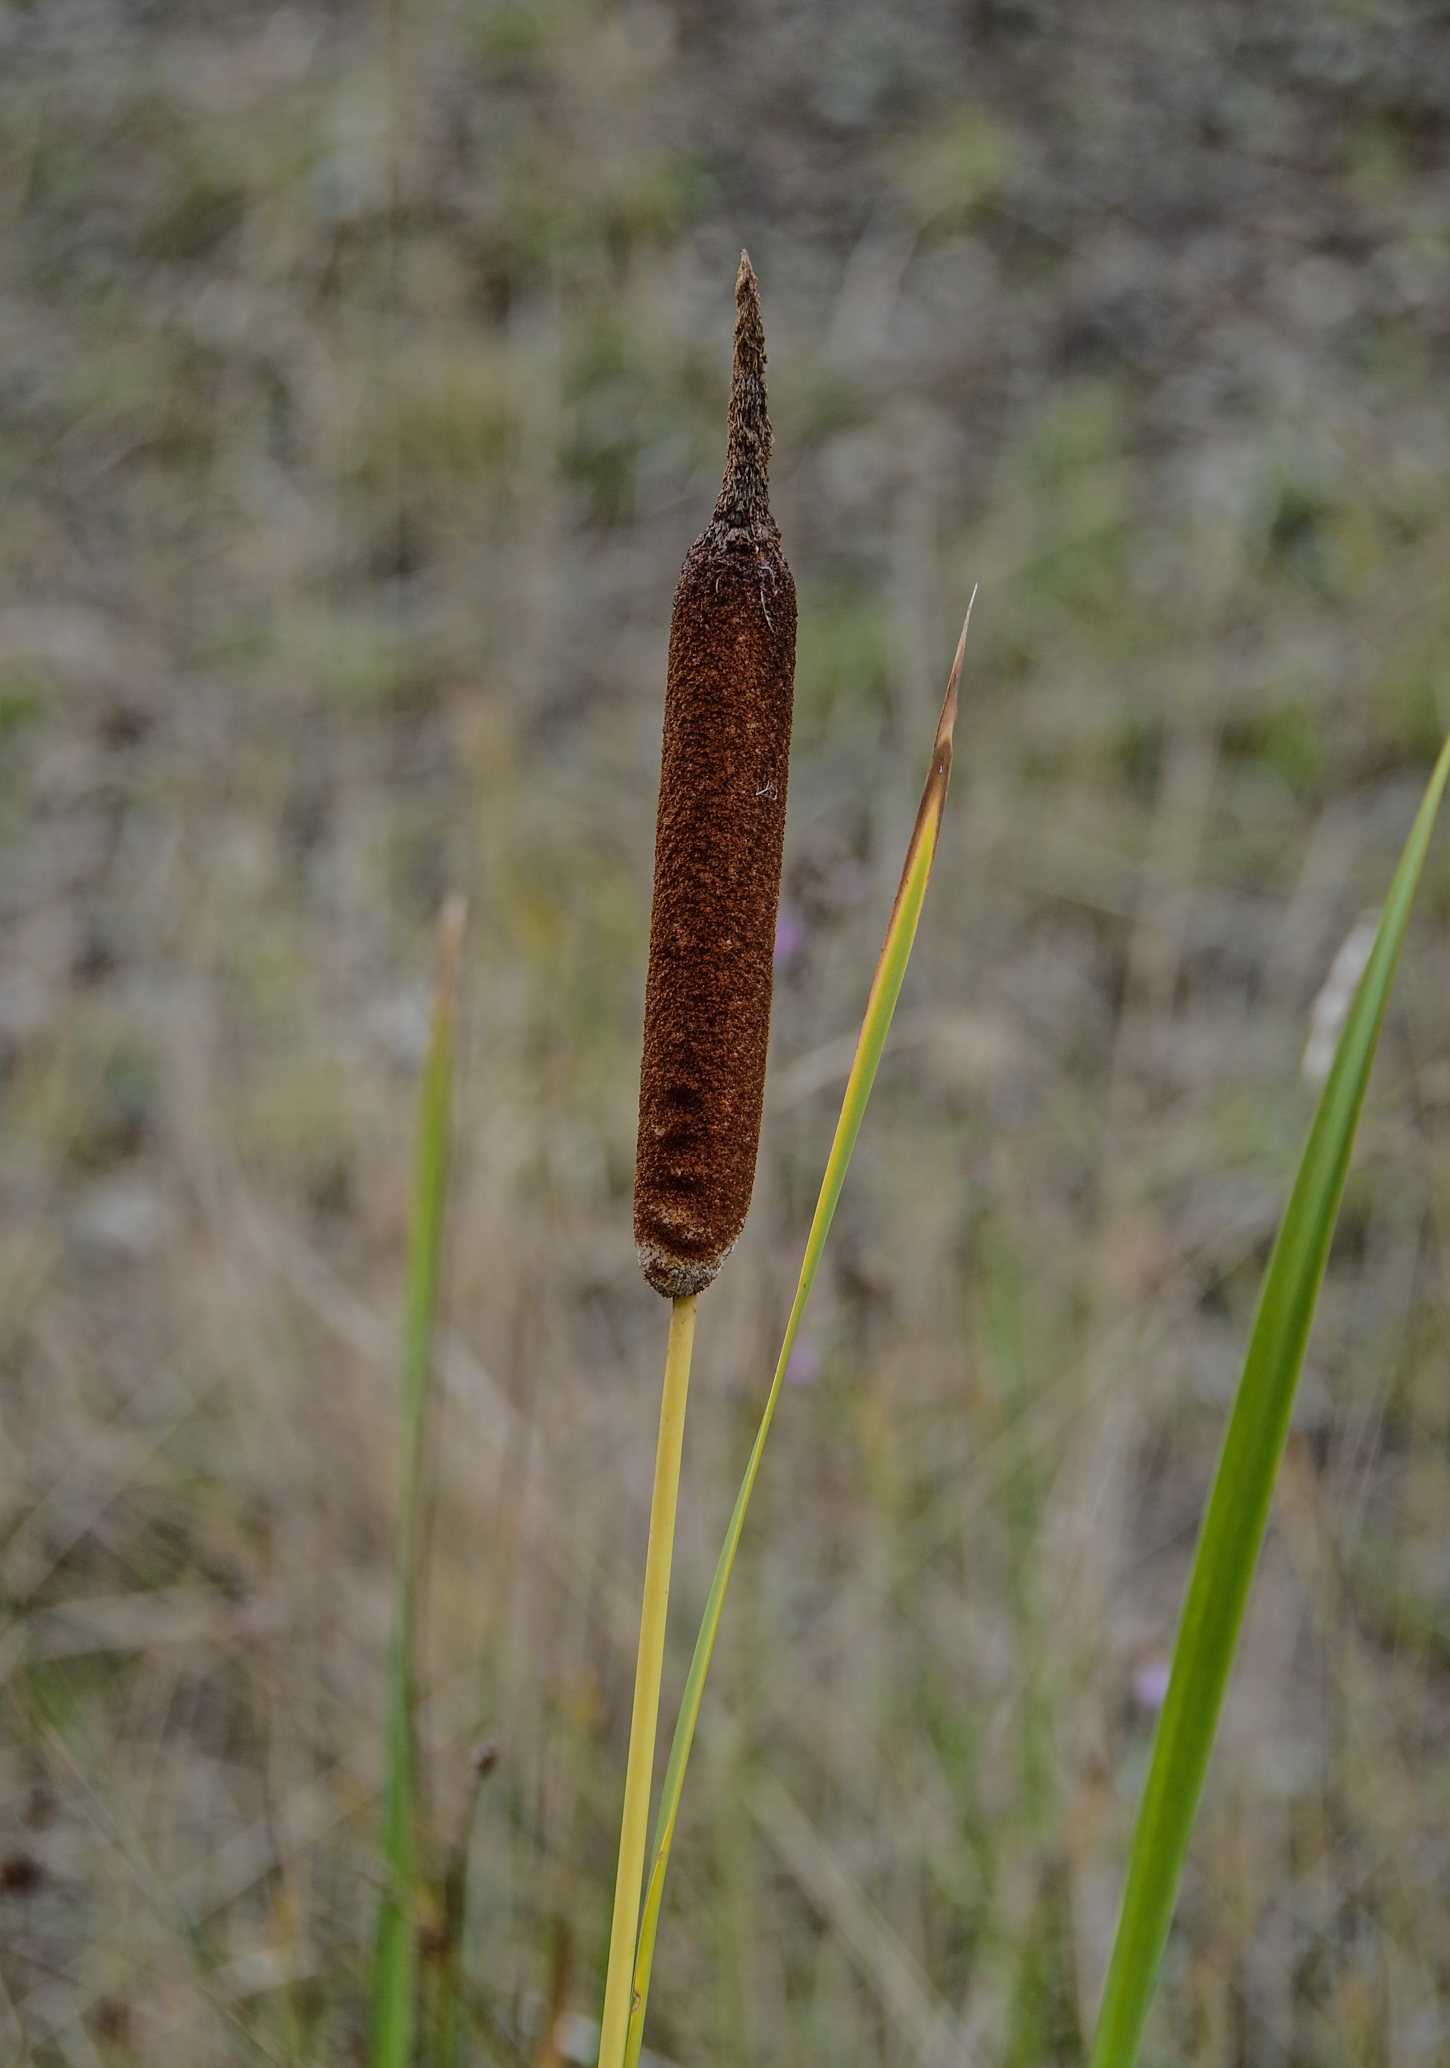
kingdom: Plantae
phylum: Tracheophyta
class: Liliopsida
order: Poales
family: Typhaceae
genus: Typha
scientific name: Typha shuttleworthii
